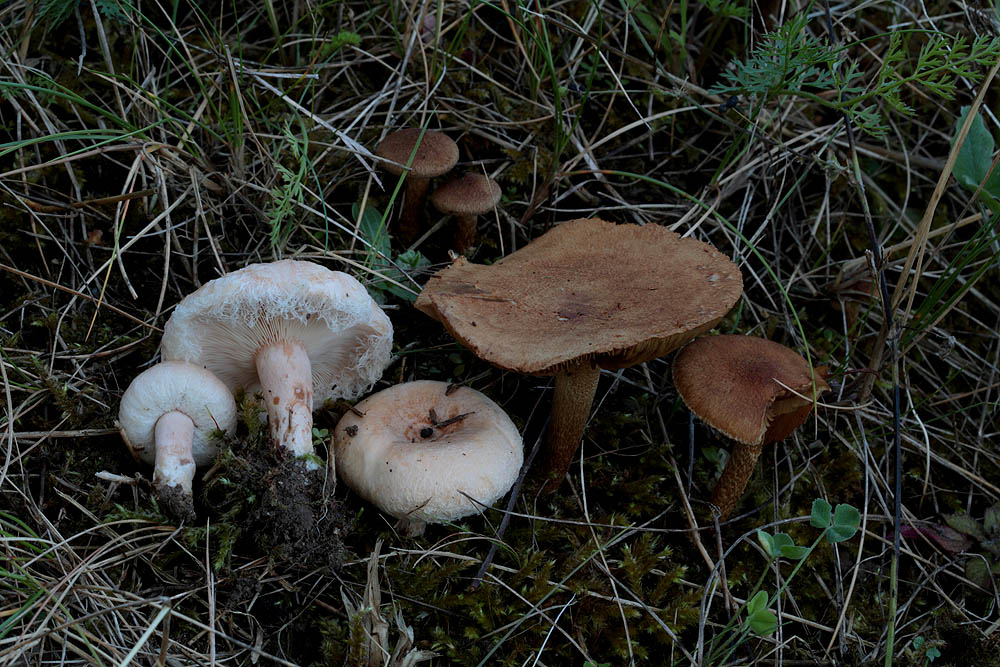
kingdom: Fungi
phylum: Basidiomycota
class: Agaricomycetes
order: Russulales
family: Russulaceae
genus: Lactarius
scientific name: Lactarius pubescens
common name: dunet mælkehat
